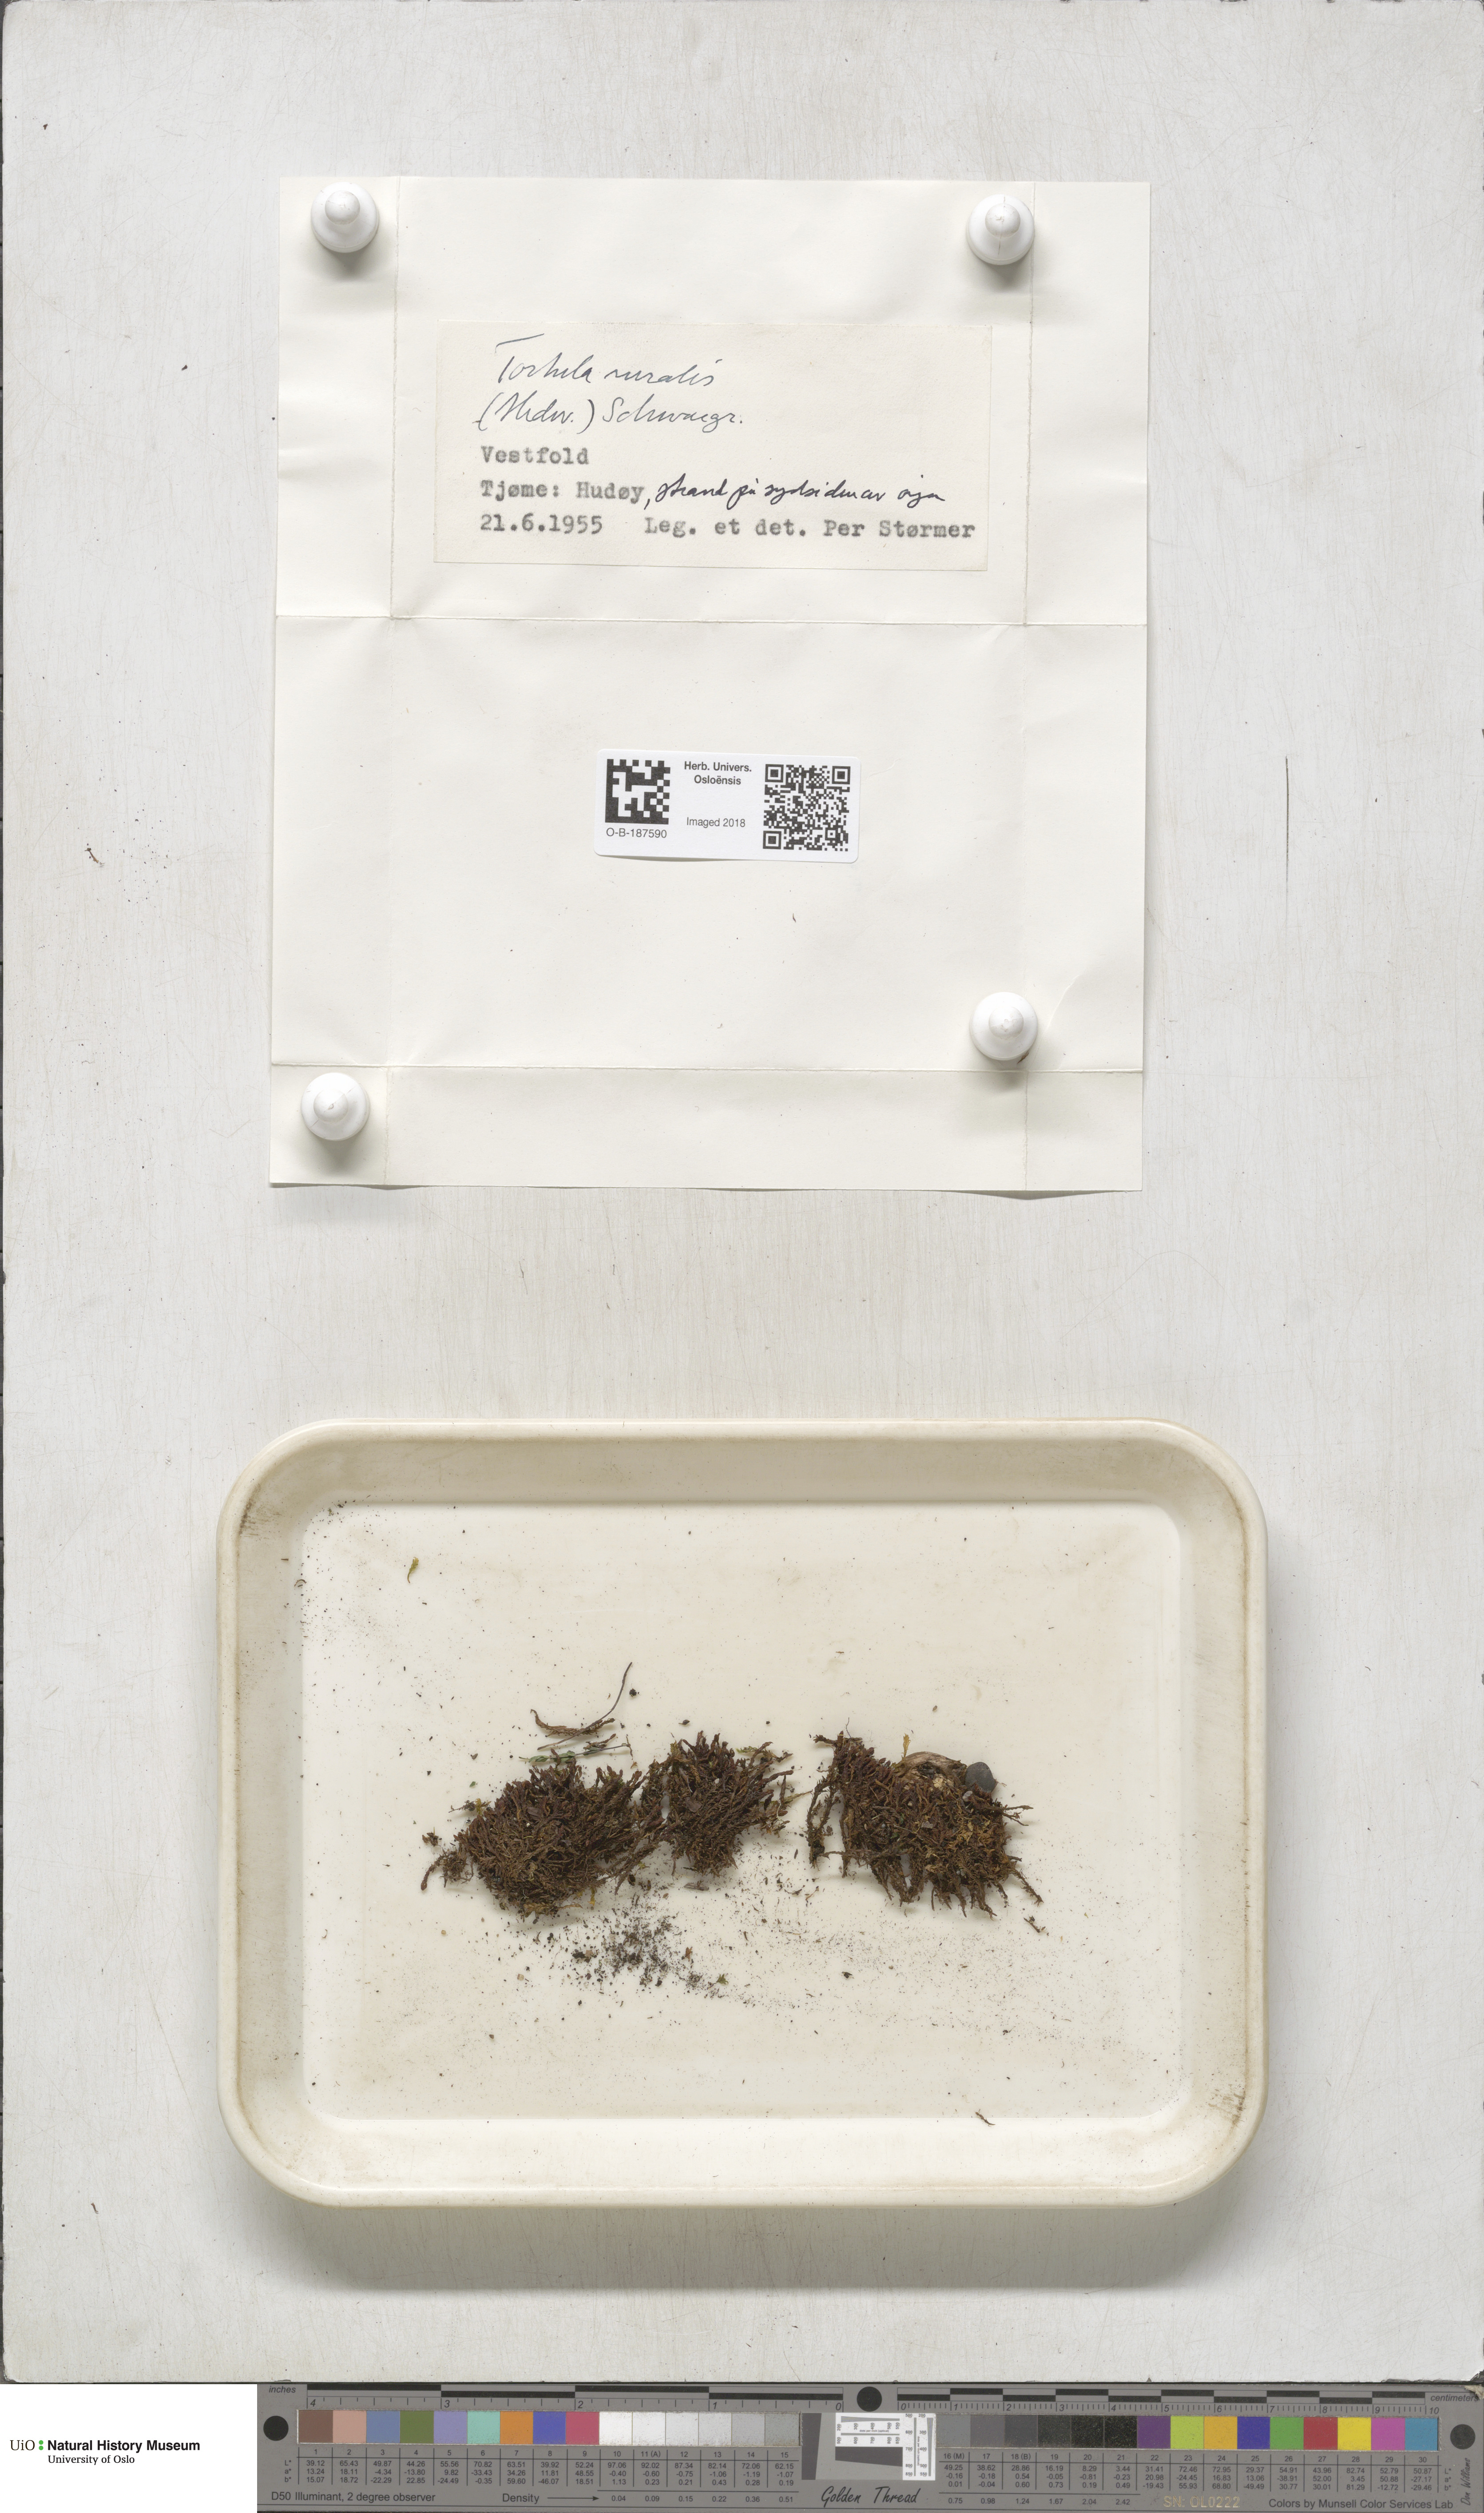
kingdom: Plantae
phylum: Bryophyta
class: Bryopsida
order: Pottiales
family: Pottiaceae
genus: Syntrichia
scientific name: Syntrichia ruralis
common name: Sidewalk screw moss
